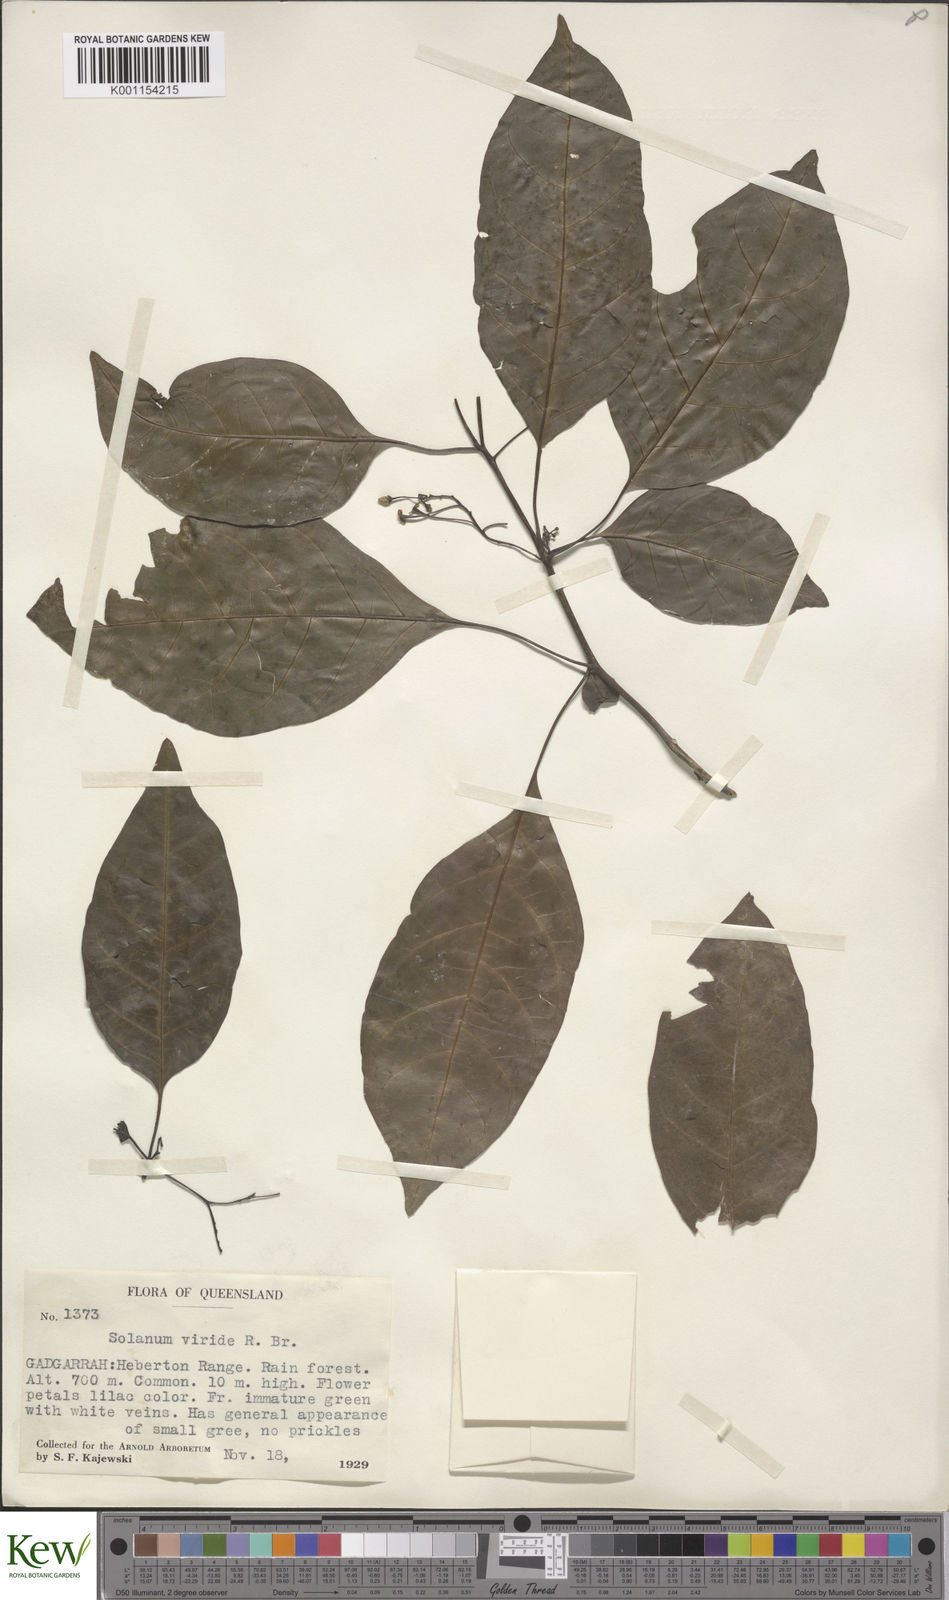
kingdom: Plantae
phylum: Tracheophyta
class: Magnoliopsida
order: Solanales
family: Solanaceae
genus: Solanum
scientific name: Solanum viridifolium
